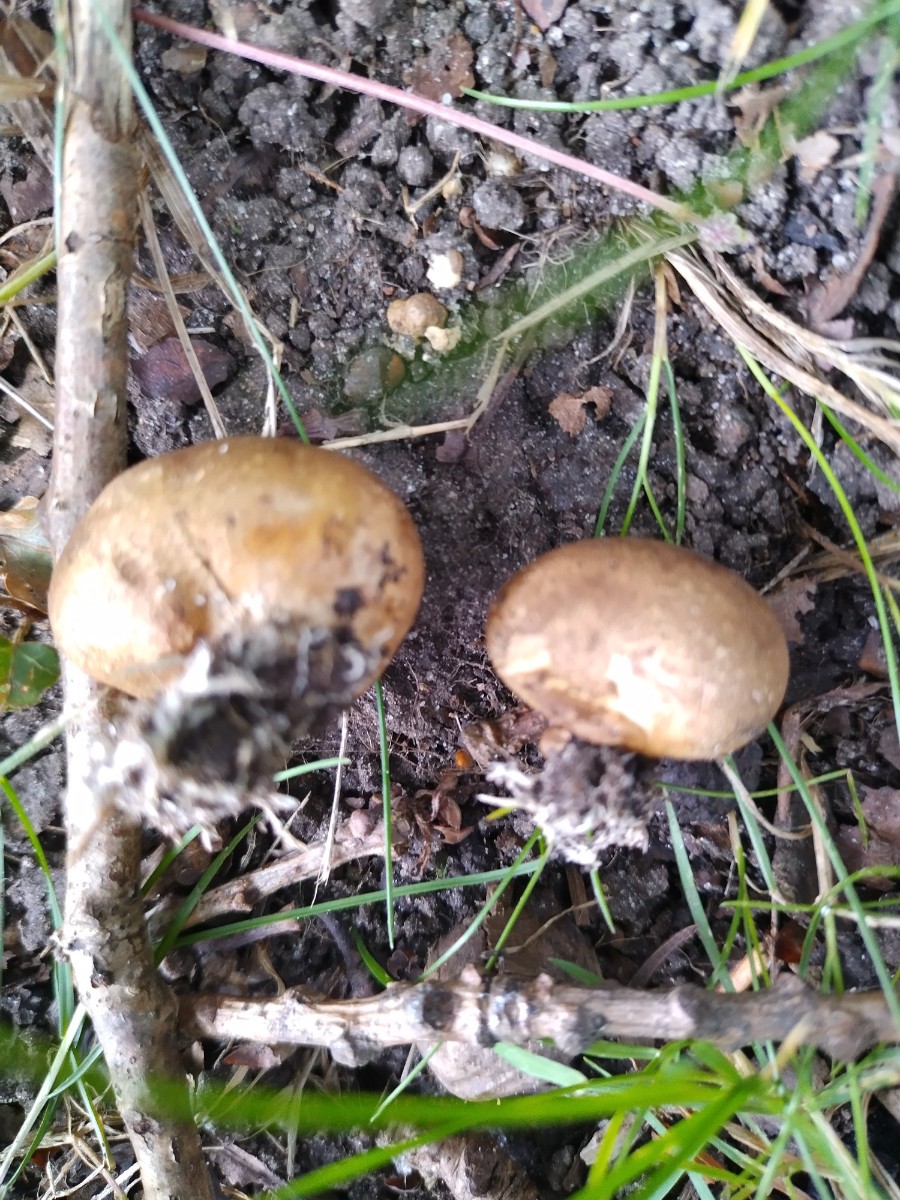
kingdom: Fungi
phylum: Basidiomycota
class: Agaricomycetes
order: Boletales
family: Sclerodermataceae
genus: Scleroderma
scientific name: Scleroderma bovista
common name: bovist-bruskbold
